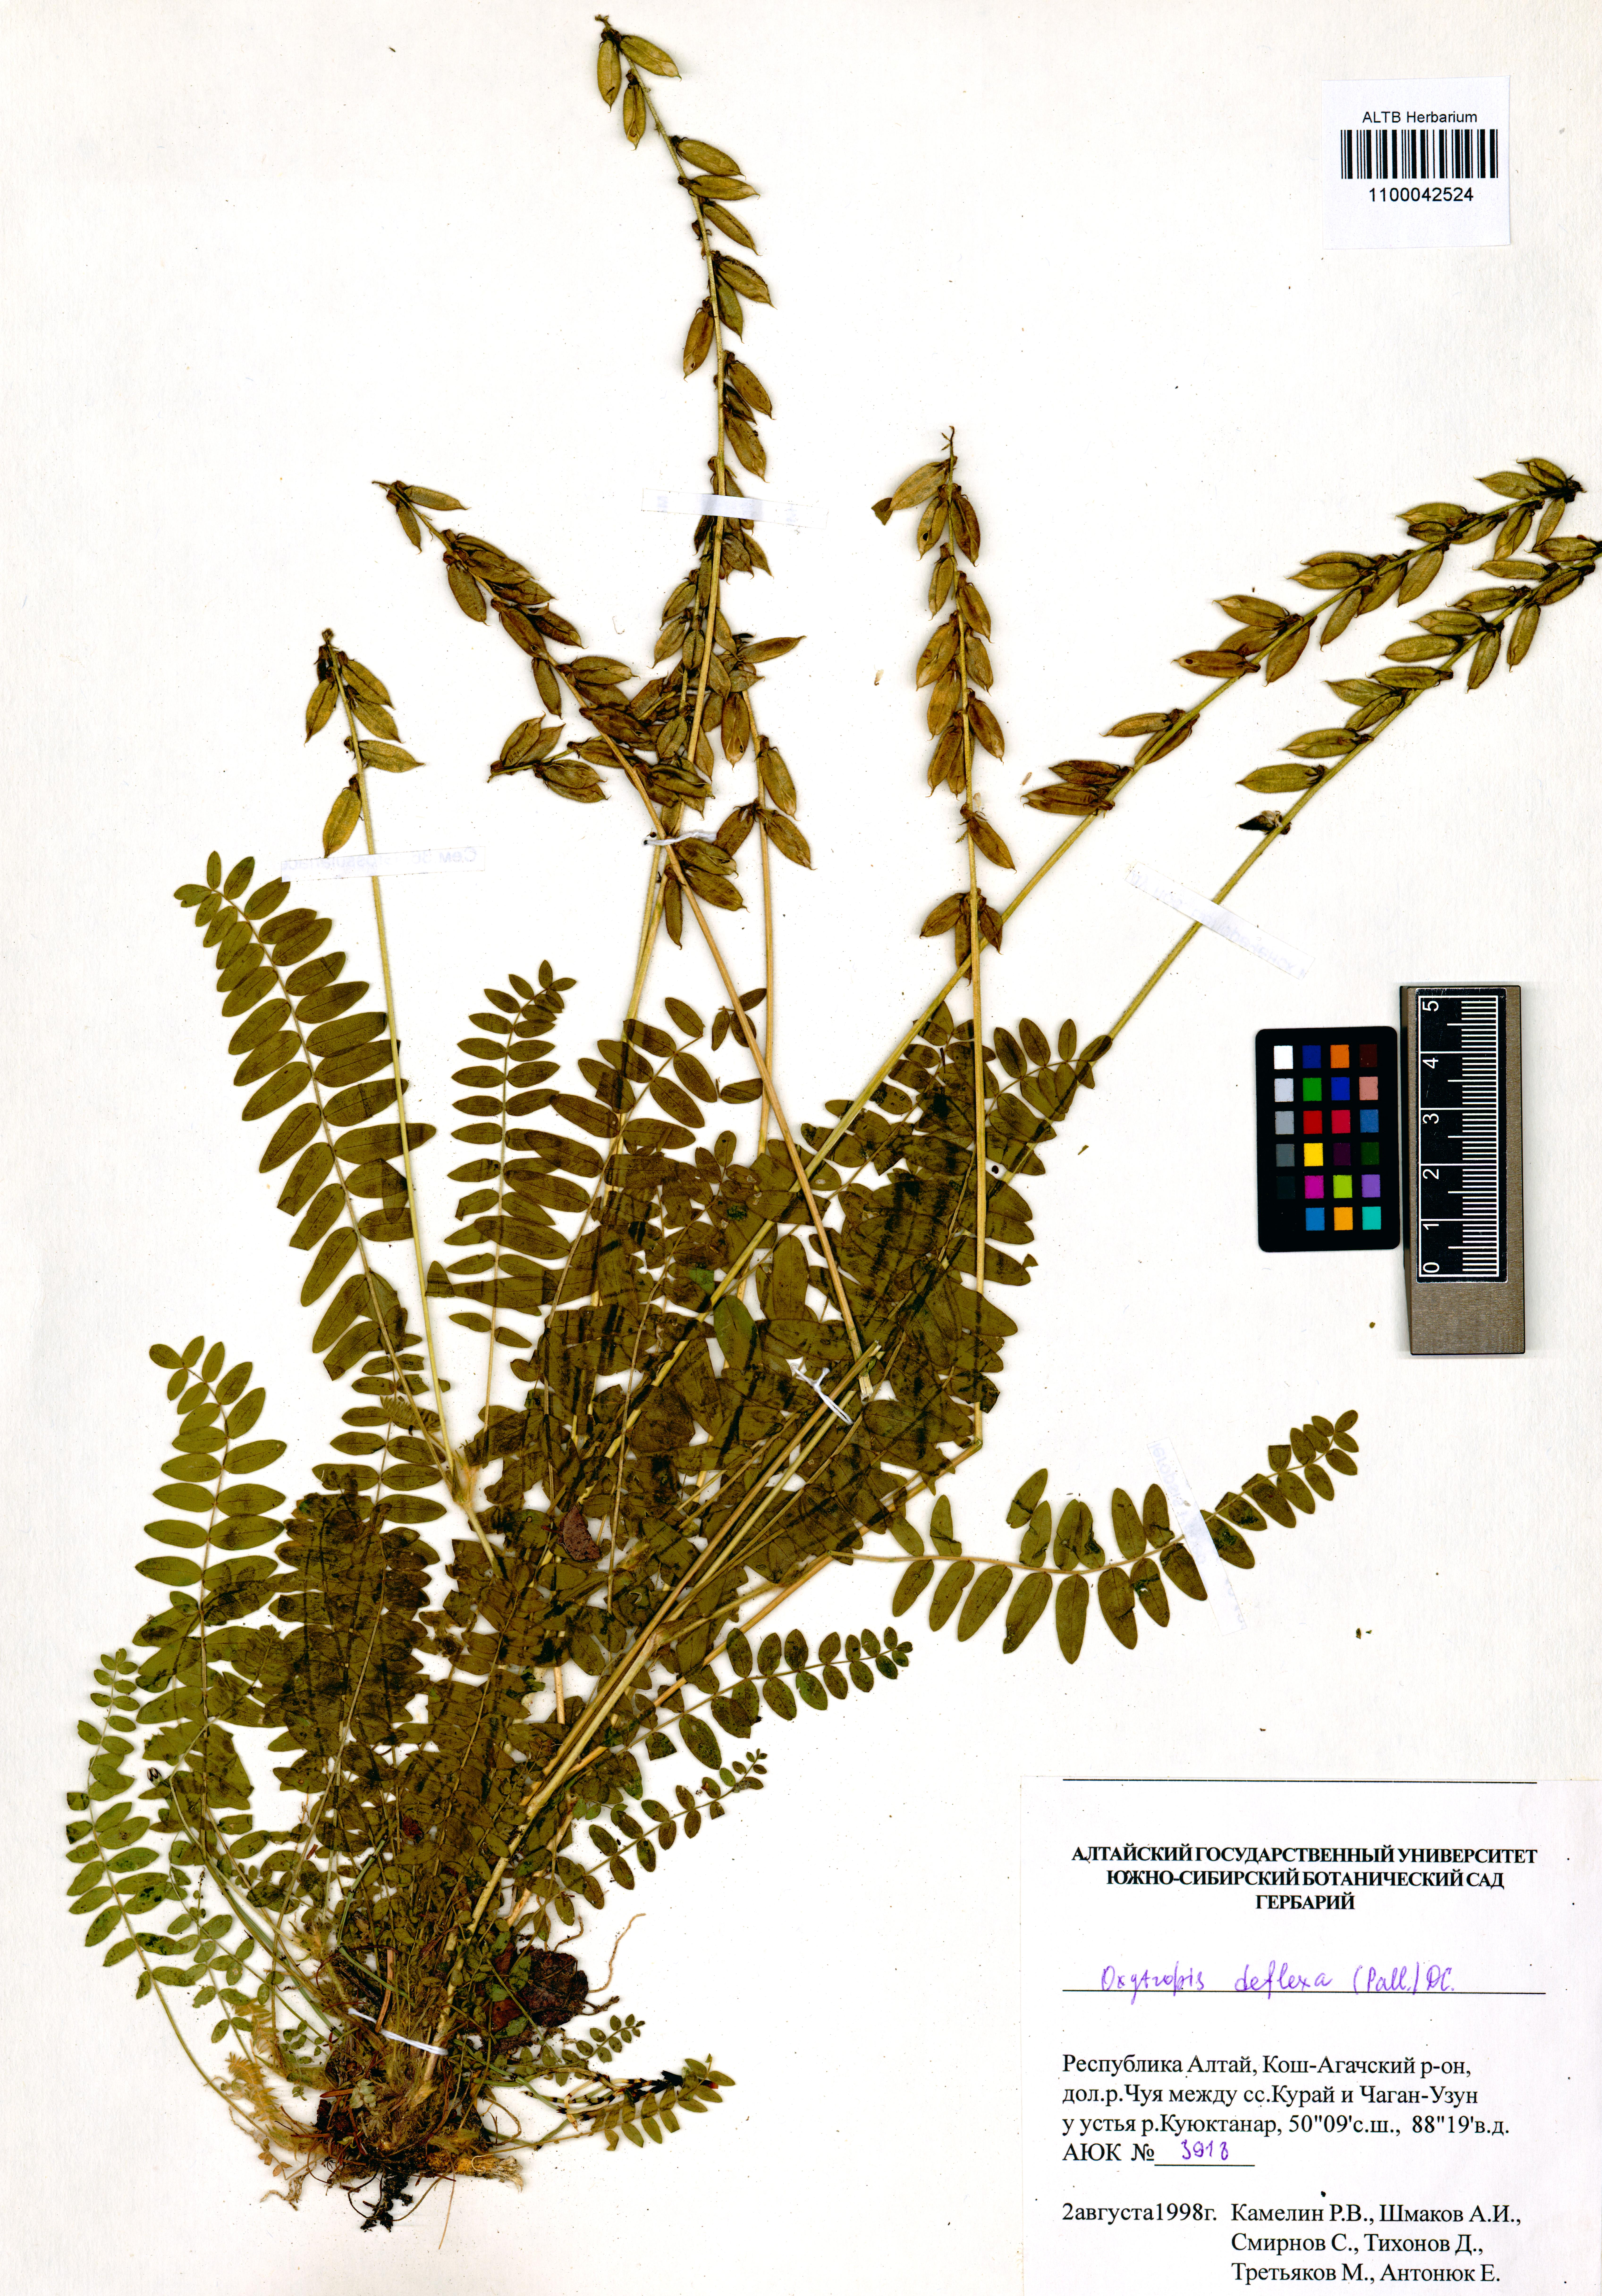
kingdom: Plantae
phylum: Tracheophyta
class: Magnoliopsida
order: Fabales
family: Fabaceae
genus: Oxytropis
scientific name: Oxytropis deflexa
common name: Stemmed oxytrope
